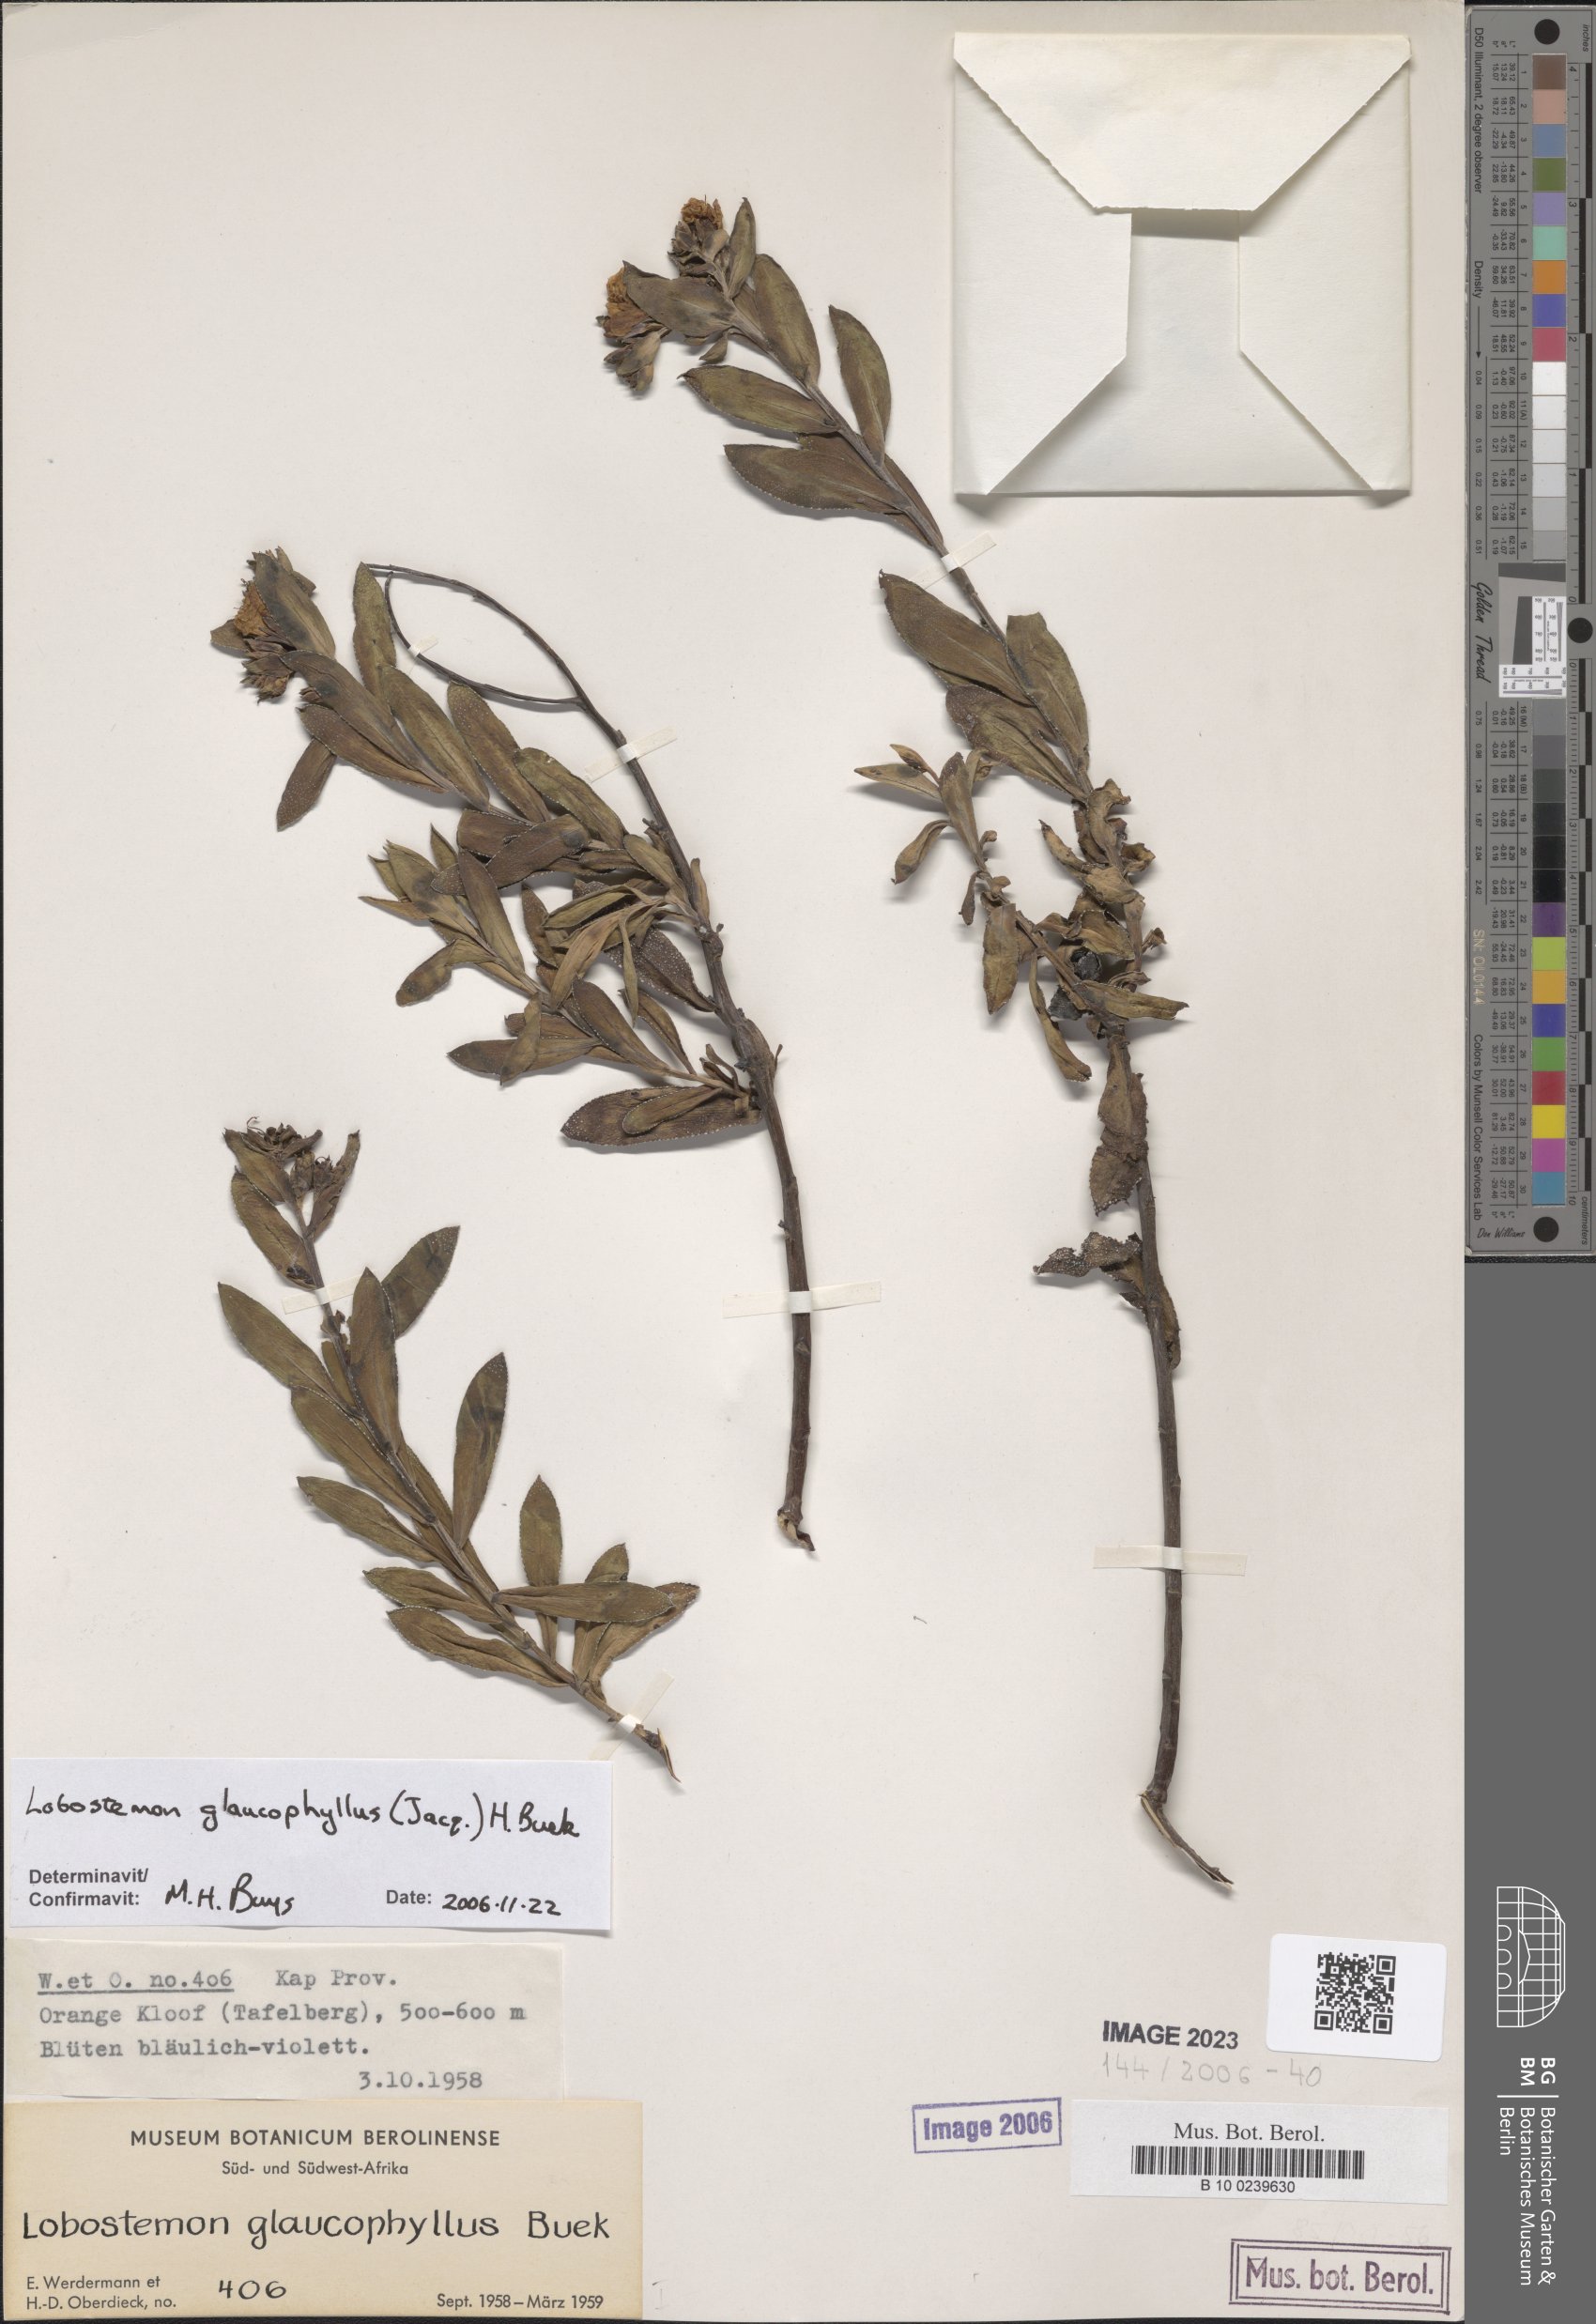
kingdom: Plantae
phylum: Tracheophyta
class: Magnoliopsida
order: Boraginales
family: Boraginaceae
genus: Lobostemon
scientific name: Lobostemon glaucophyllus
